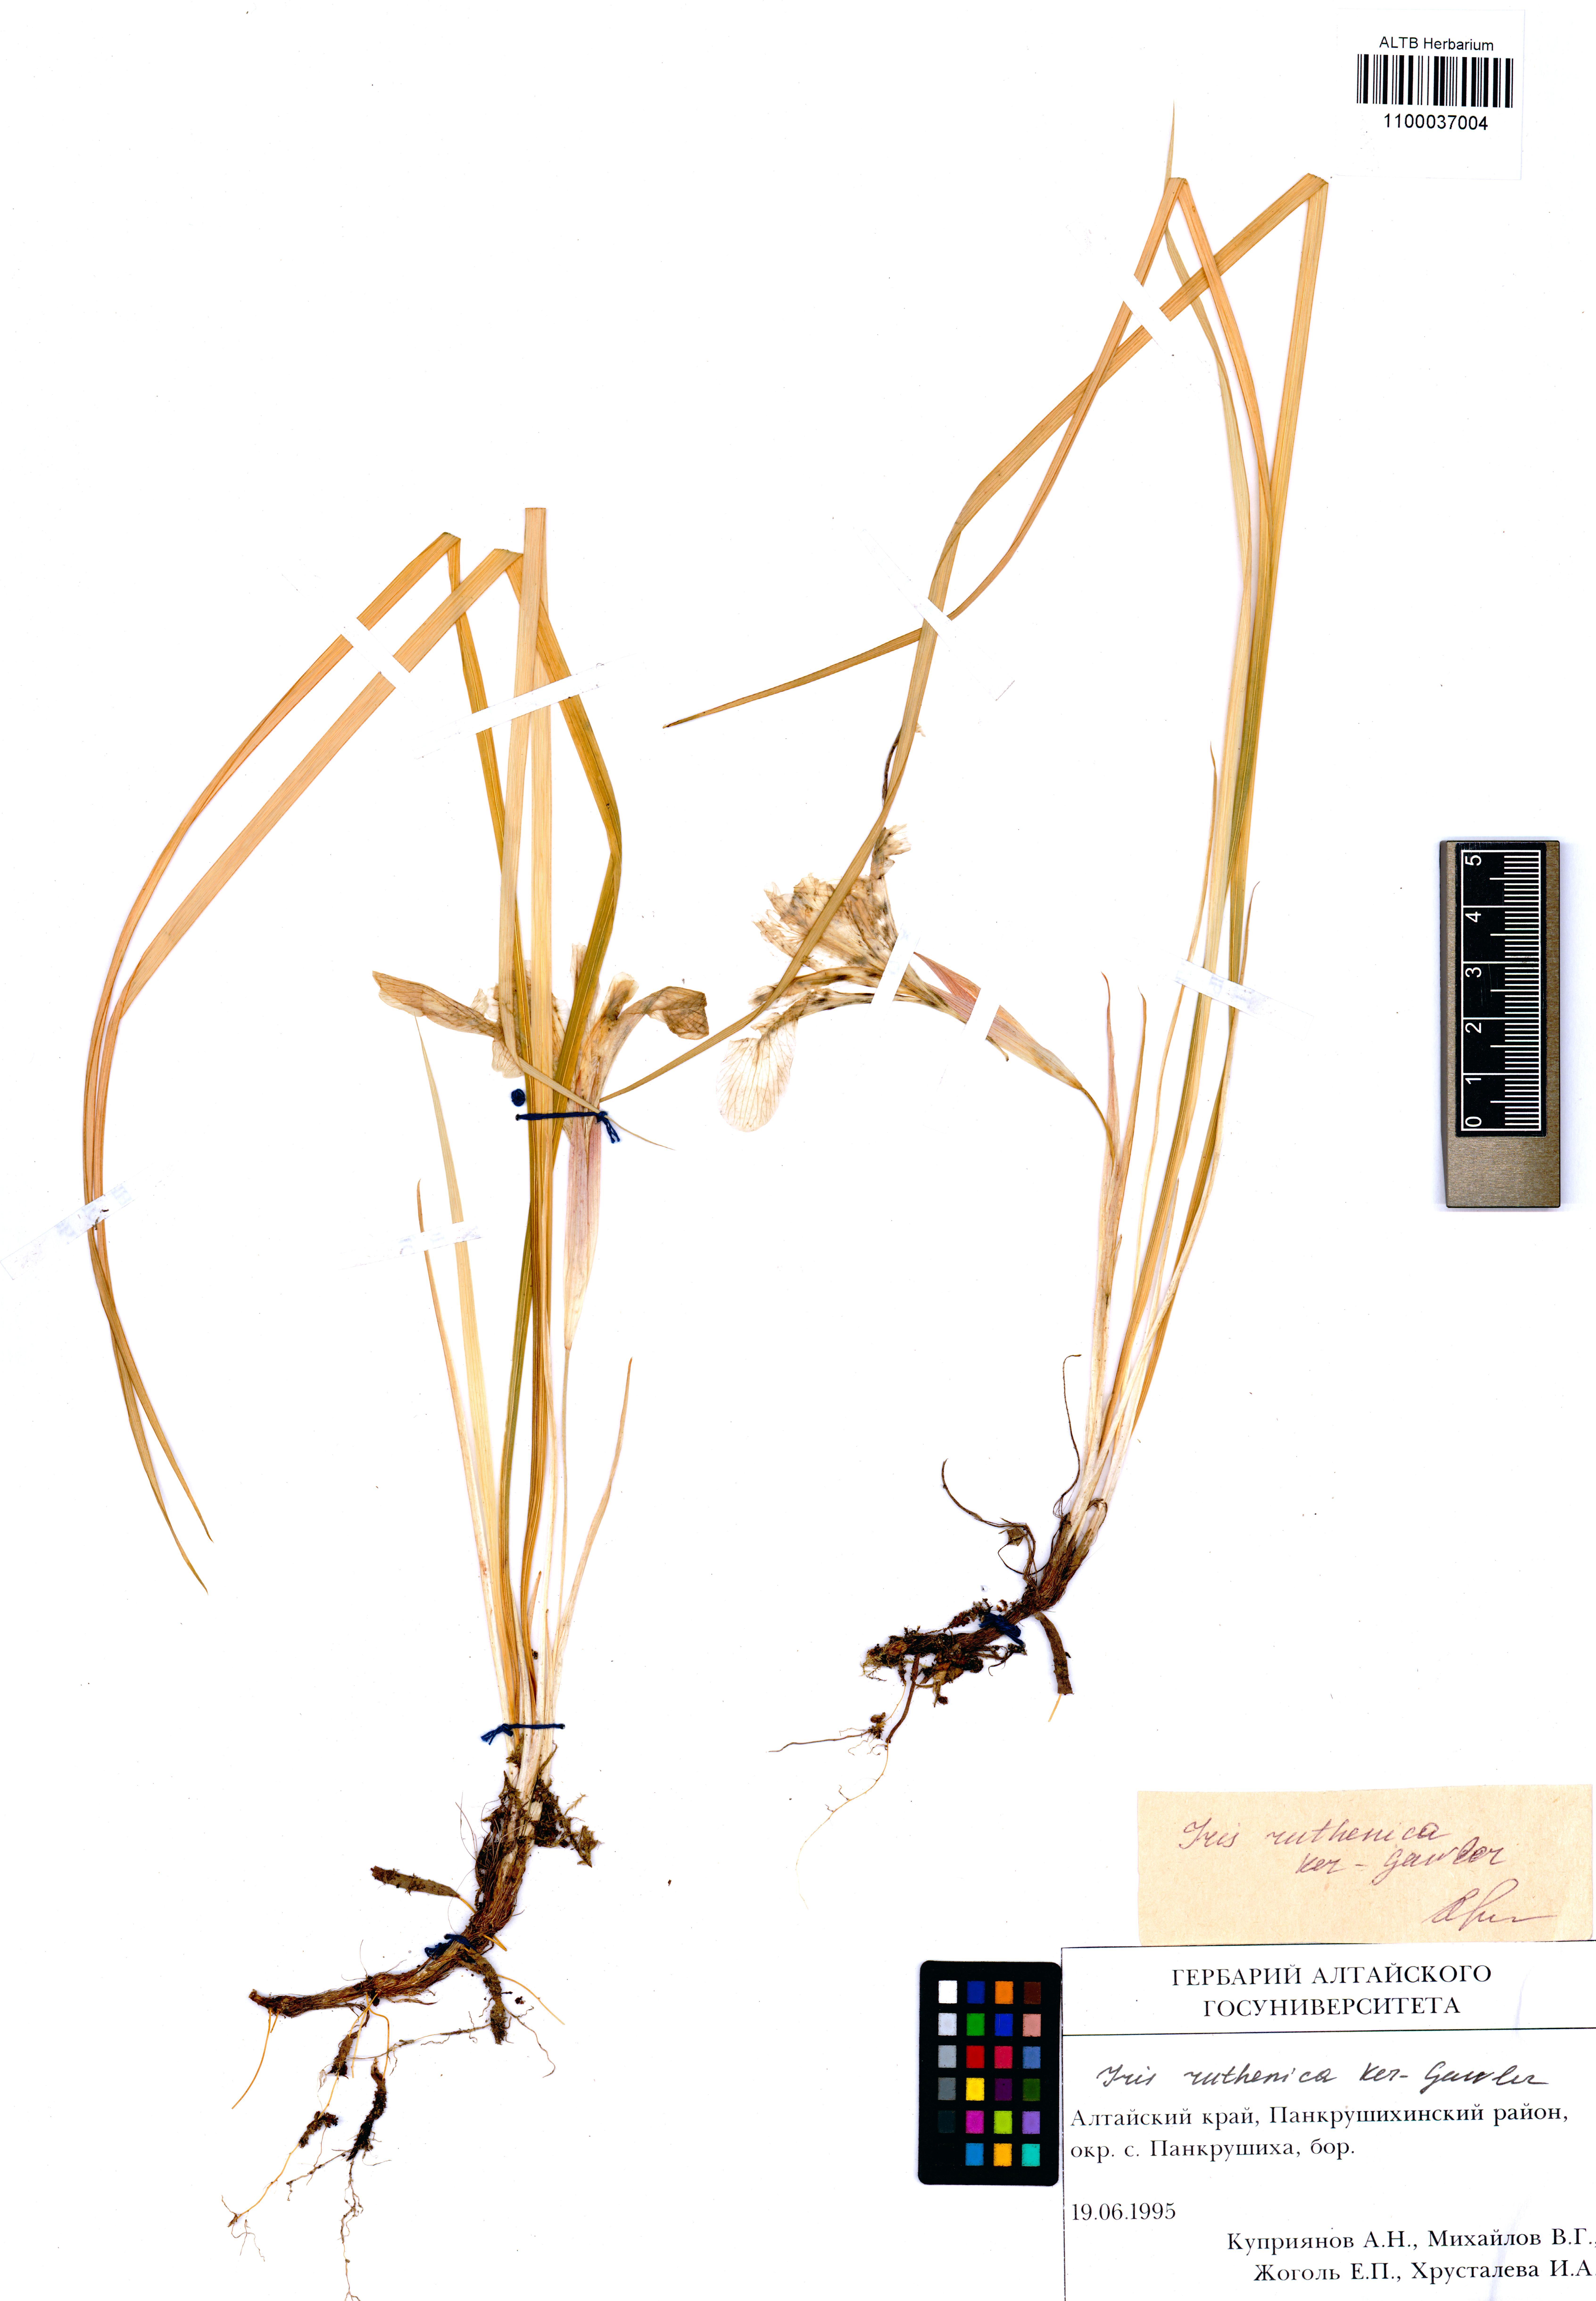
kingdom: Plantae
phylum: Tracheophyta
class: Liliopsida
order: Asparagales
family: Iridaceae
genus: Iris
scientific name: Iris ruthenica
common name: Purple-bract iris
